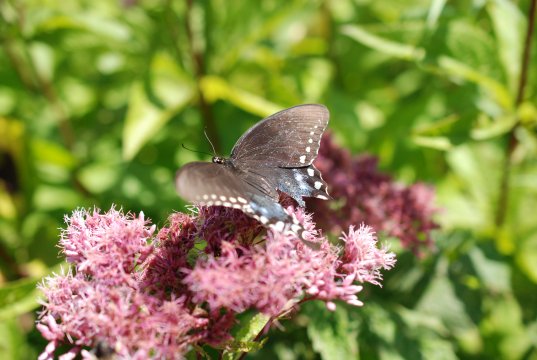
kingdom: Animalia
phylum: Arthropoda
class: Insecta
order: Lepidoptera
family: Papilionidae
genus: Pterourus
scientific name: Pterourus troilus
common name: Spicebush Swallowtail
